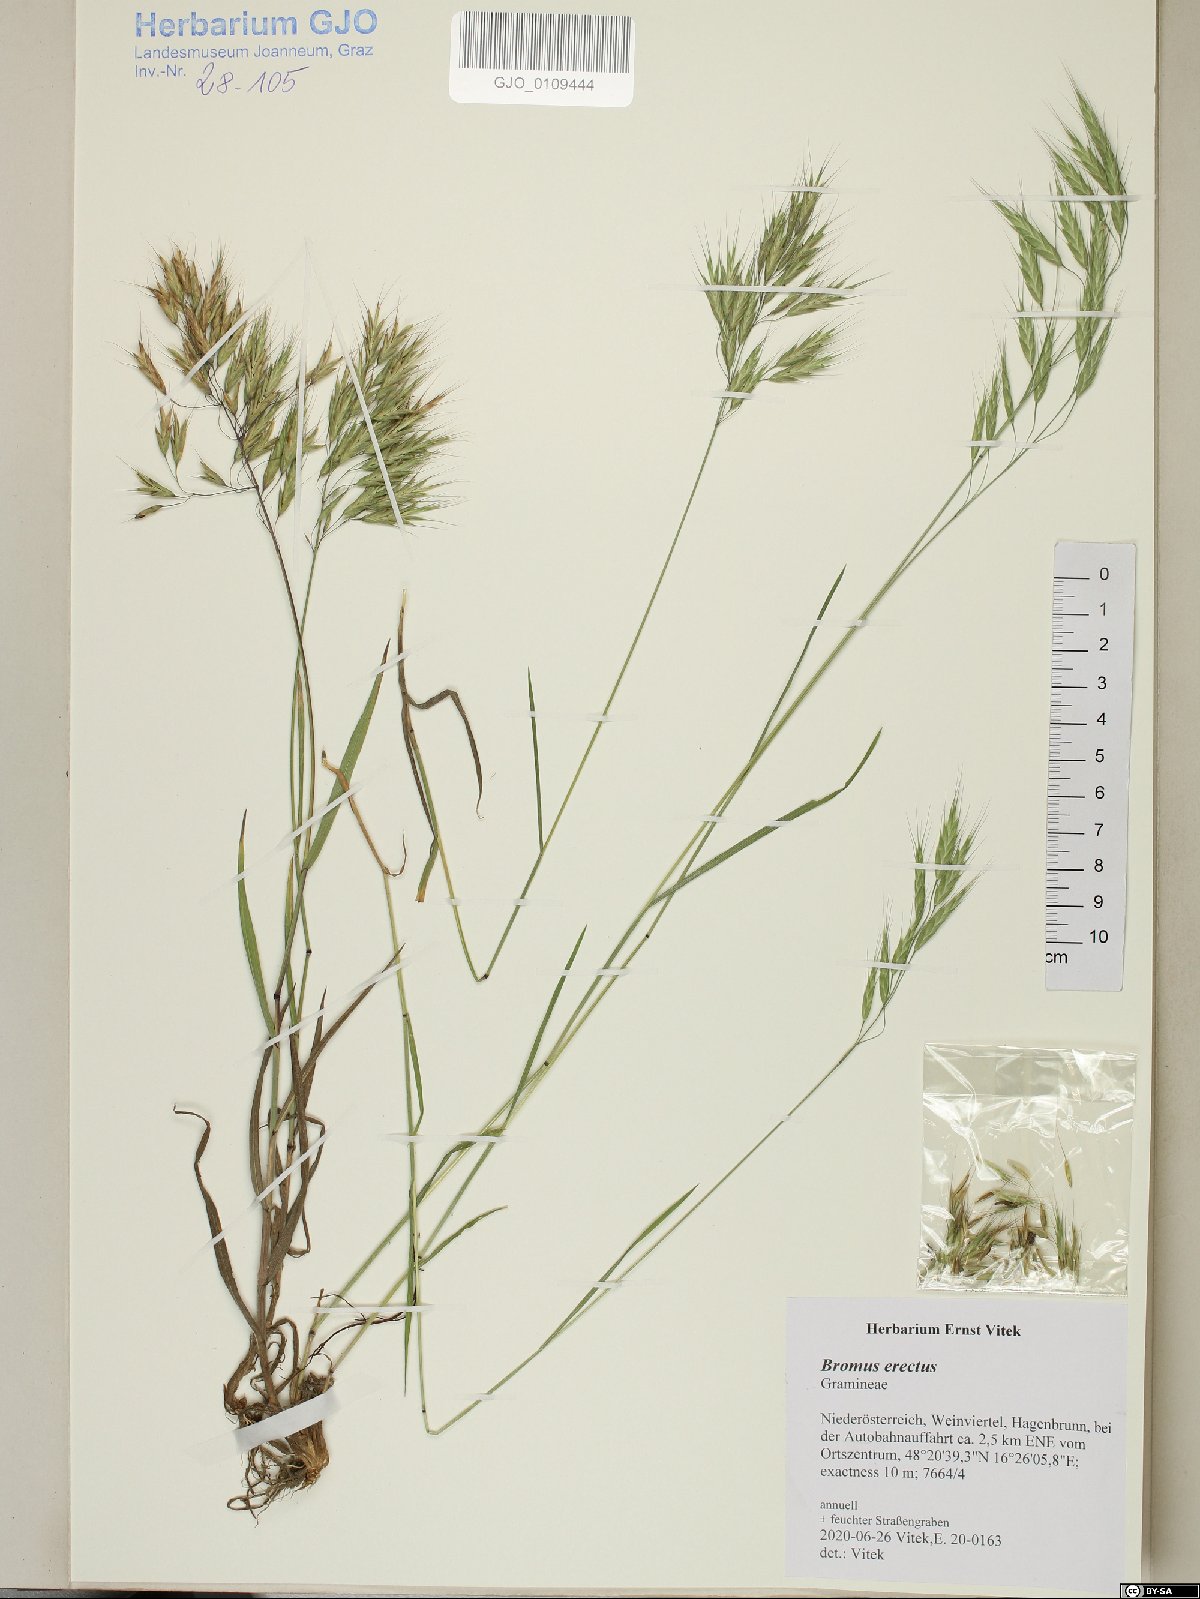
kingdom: Plantae
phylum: Tracheophyta
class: Liliopsida
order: Poales
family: Poaceae
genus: Bromus
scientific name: Bromus erectus
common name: Erect brome
